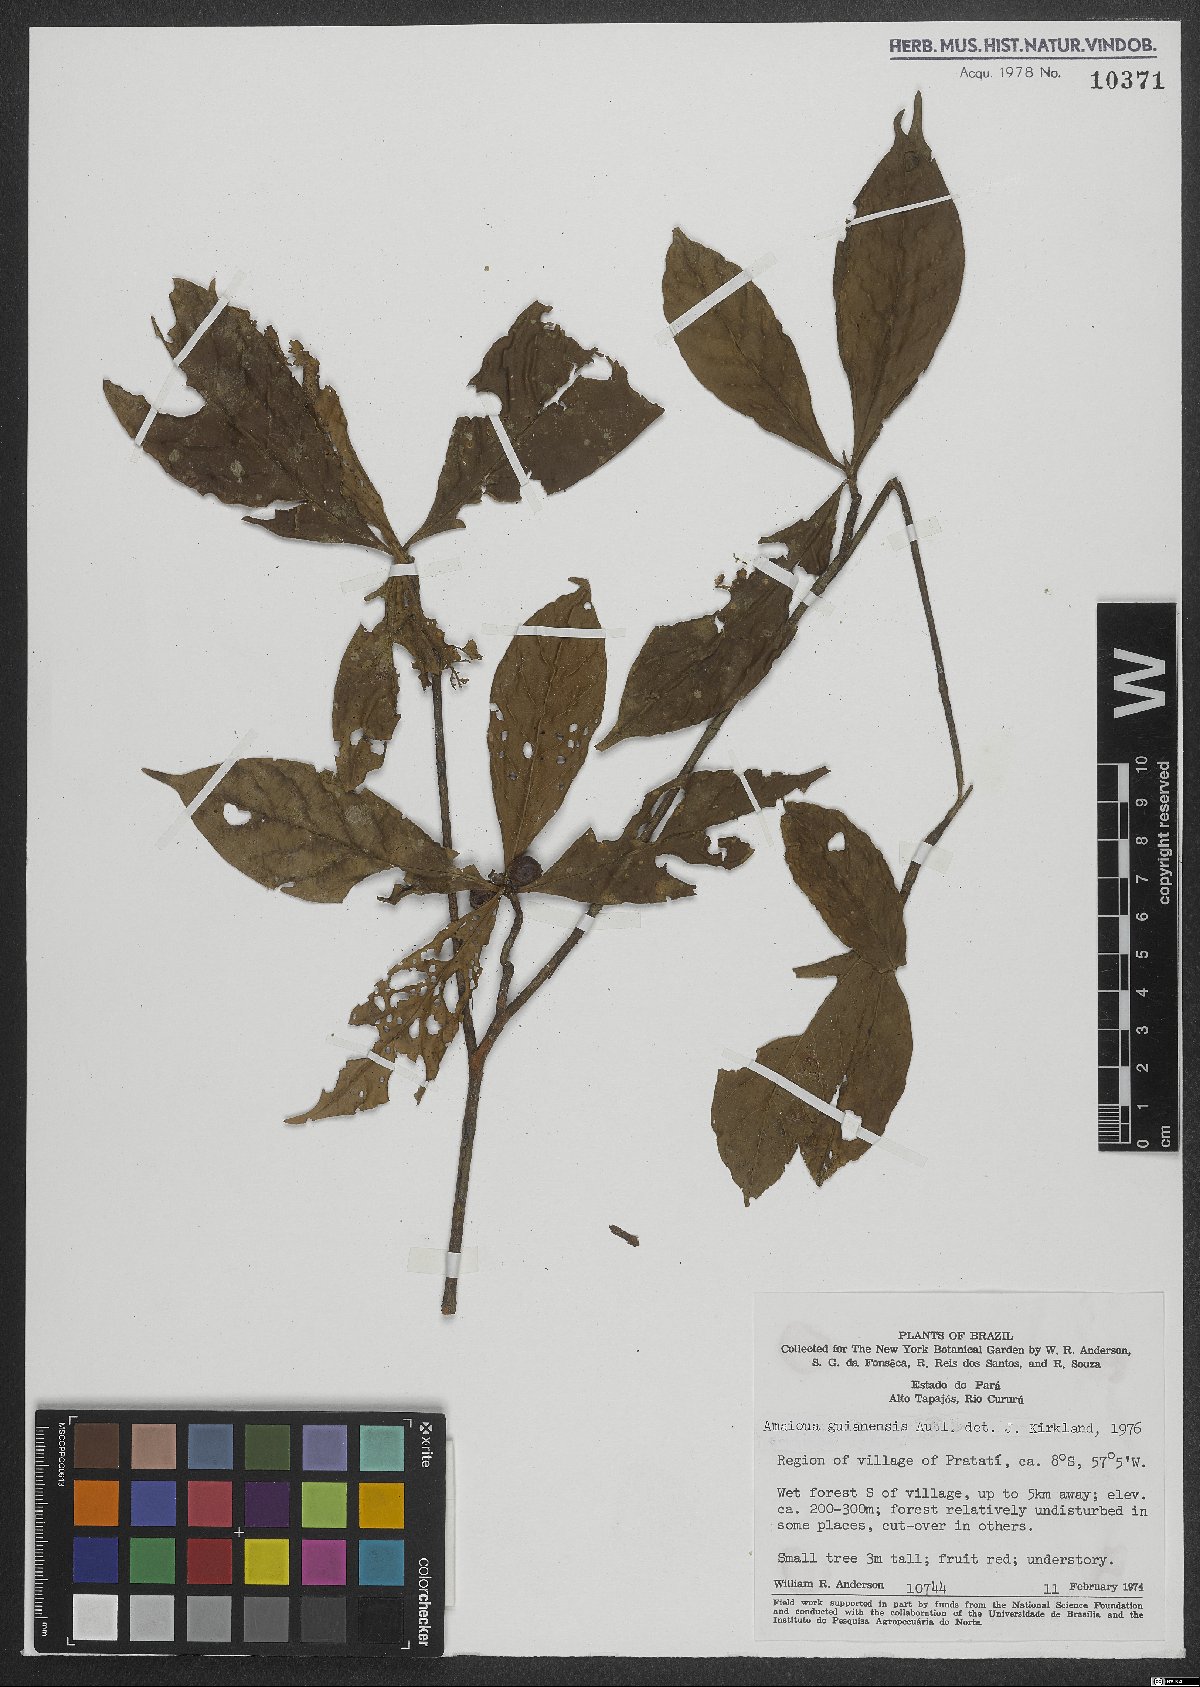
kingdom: Plantae
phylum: Tracheophyta
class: Magnoliopsida
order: Gentianales
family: Rubiaceae
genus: Amaioua
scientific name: Amaioua guianensis
